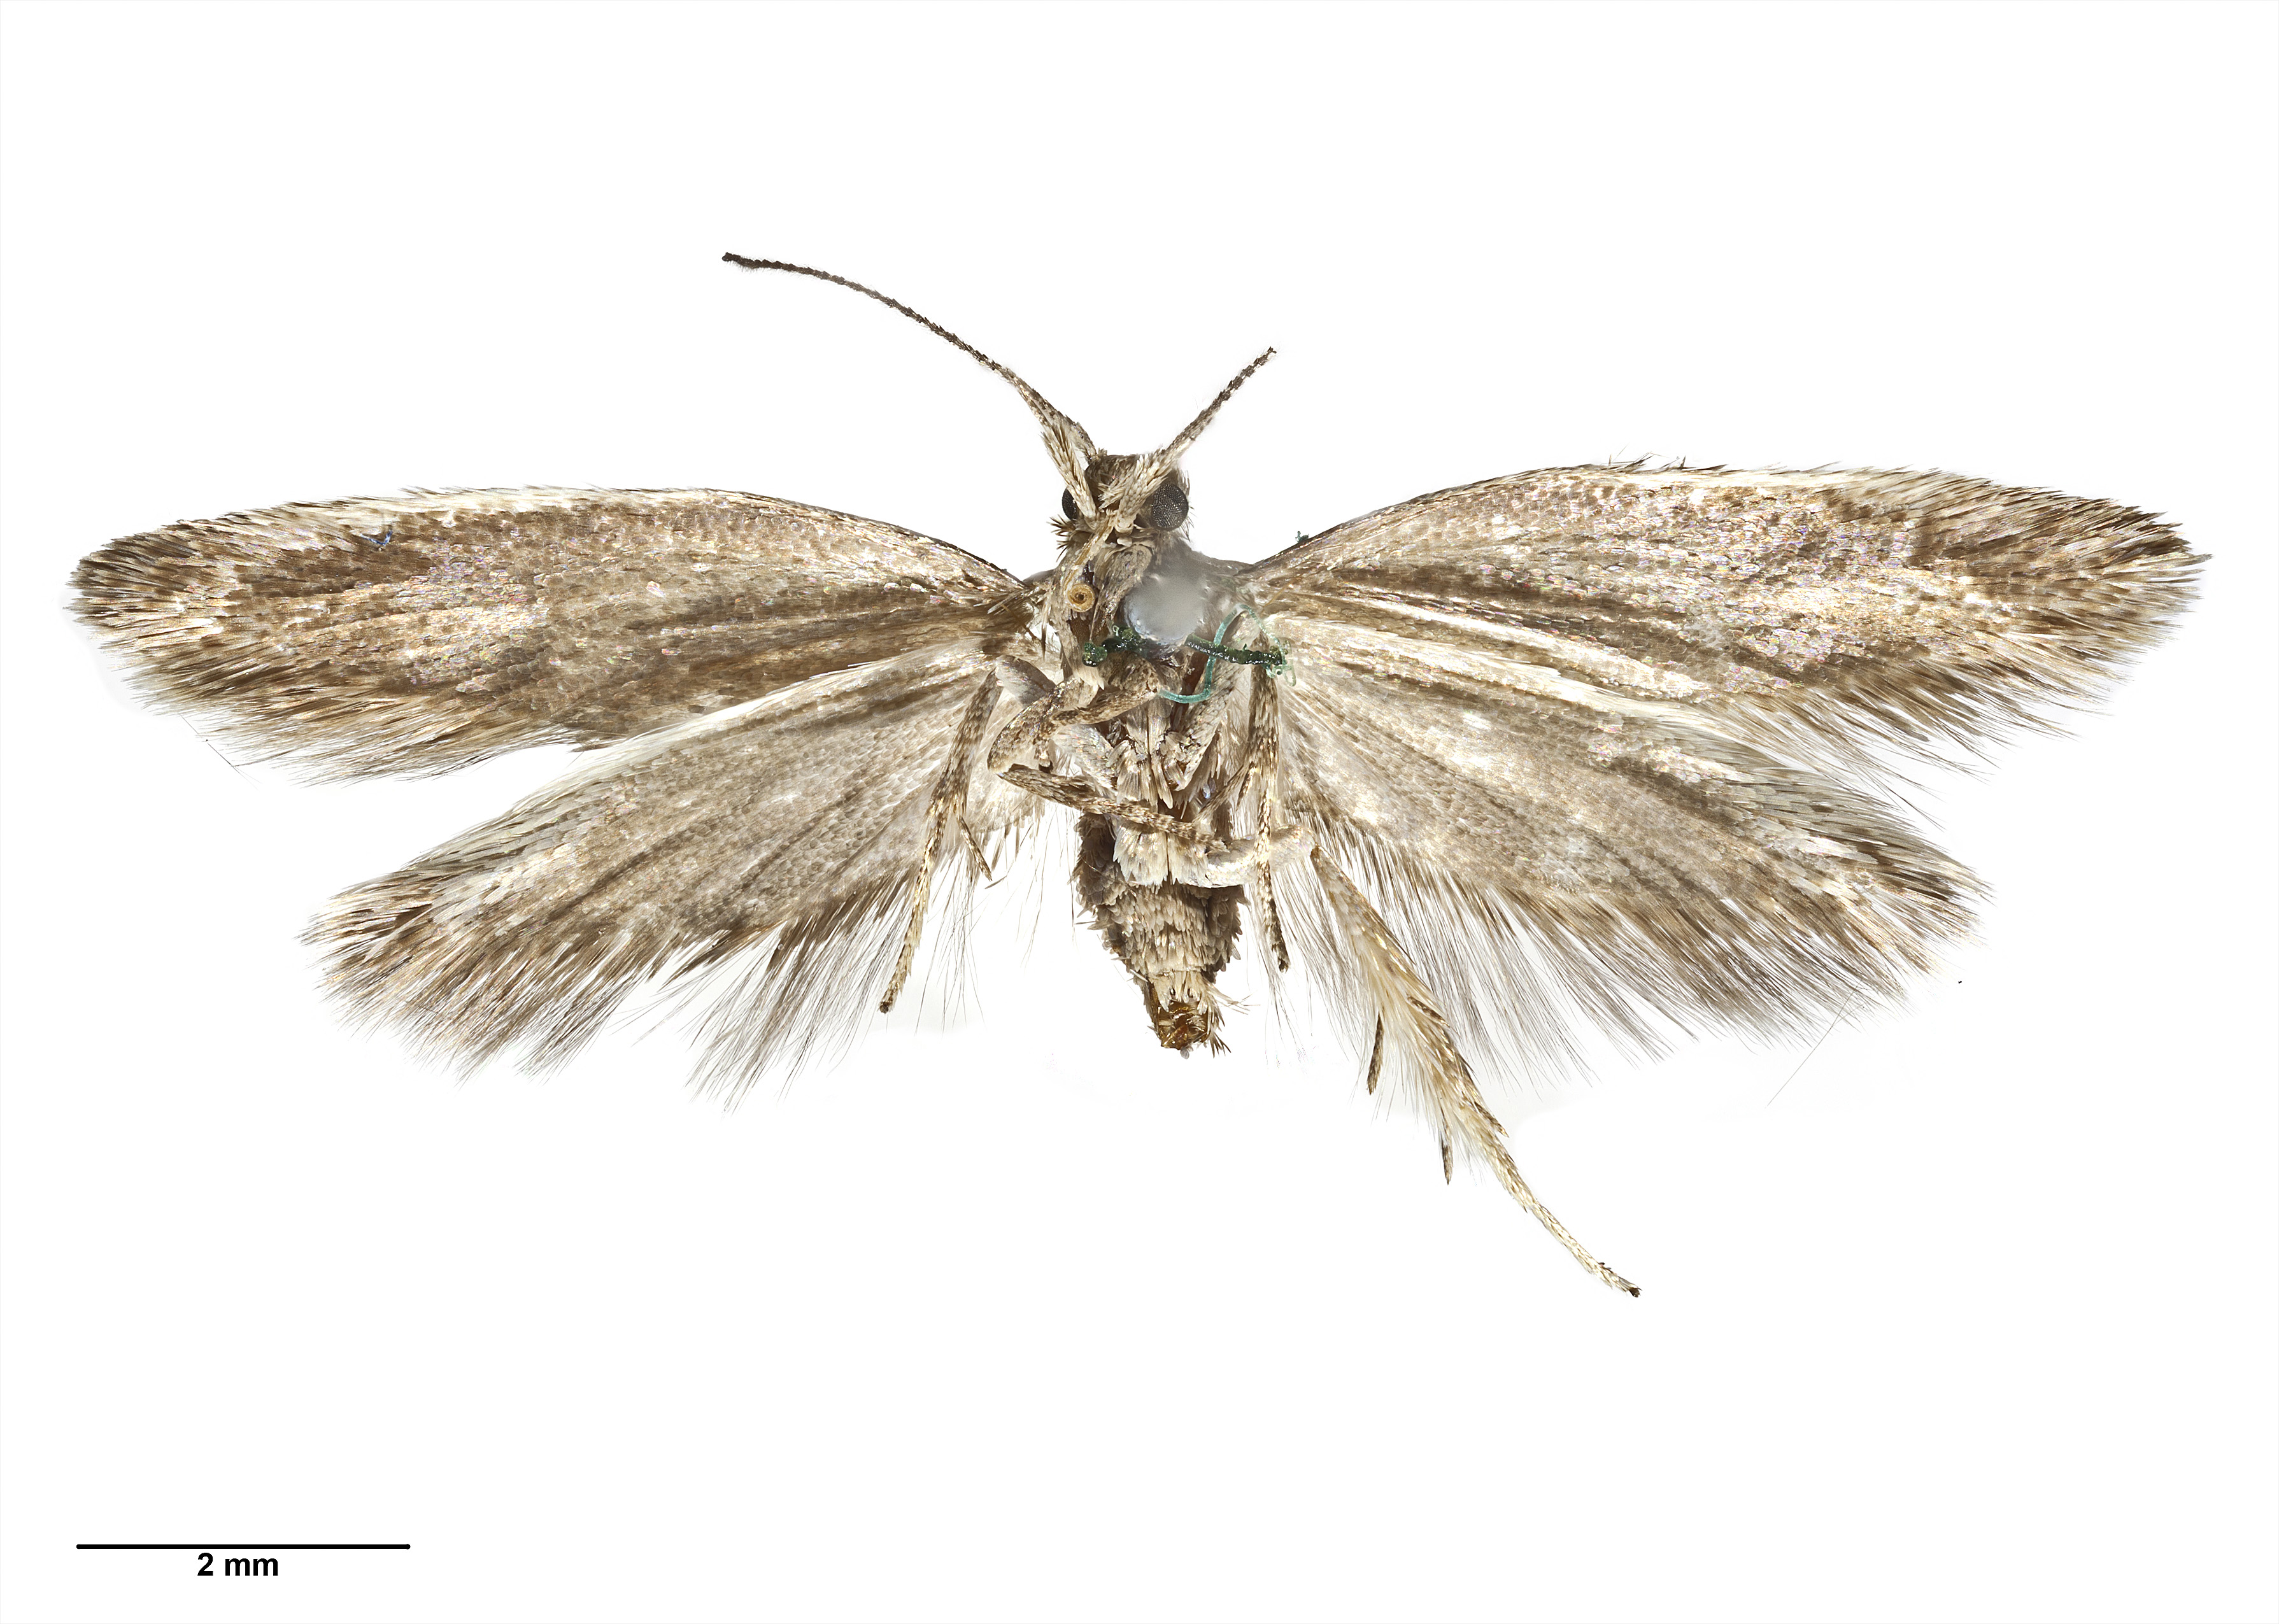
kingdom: Animalia
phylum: Arthropoda
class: Insecta
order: Lepidoptera
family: Oecophoridae
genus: Tingena
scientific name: Tingena levicula
